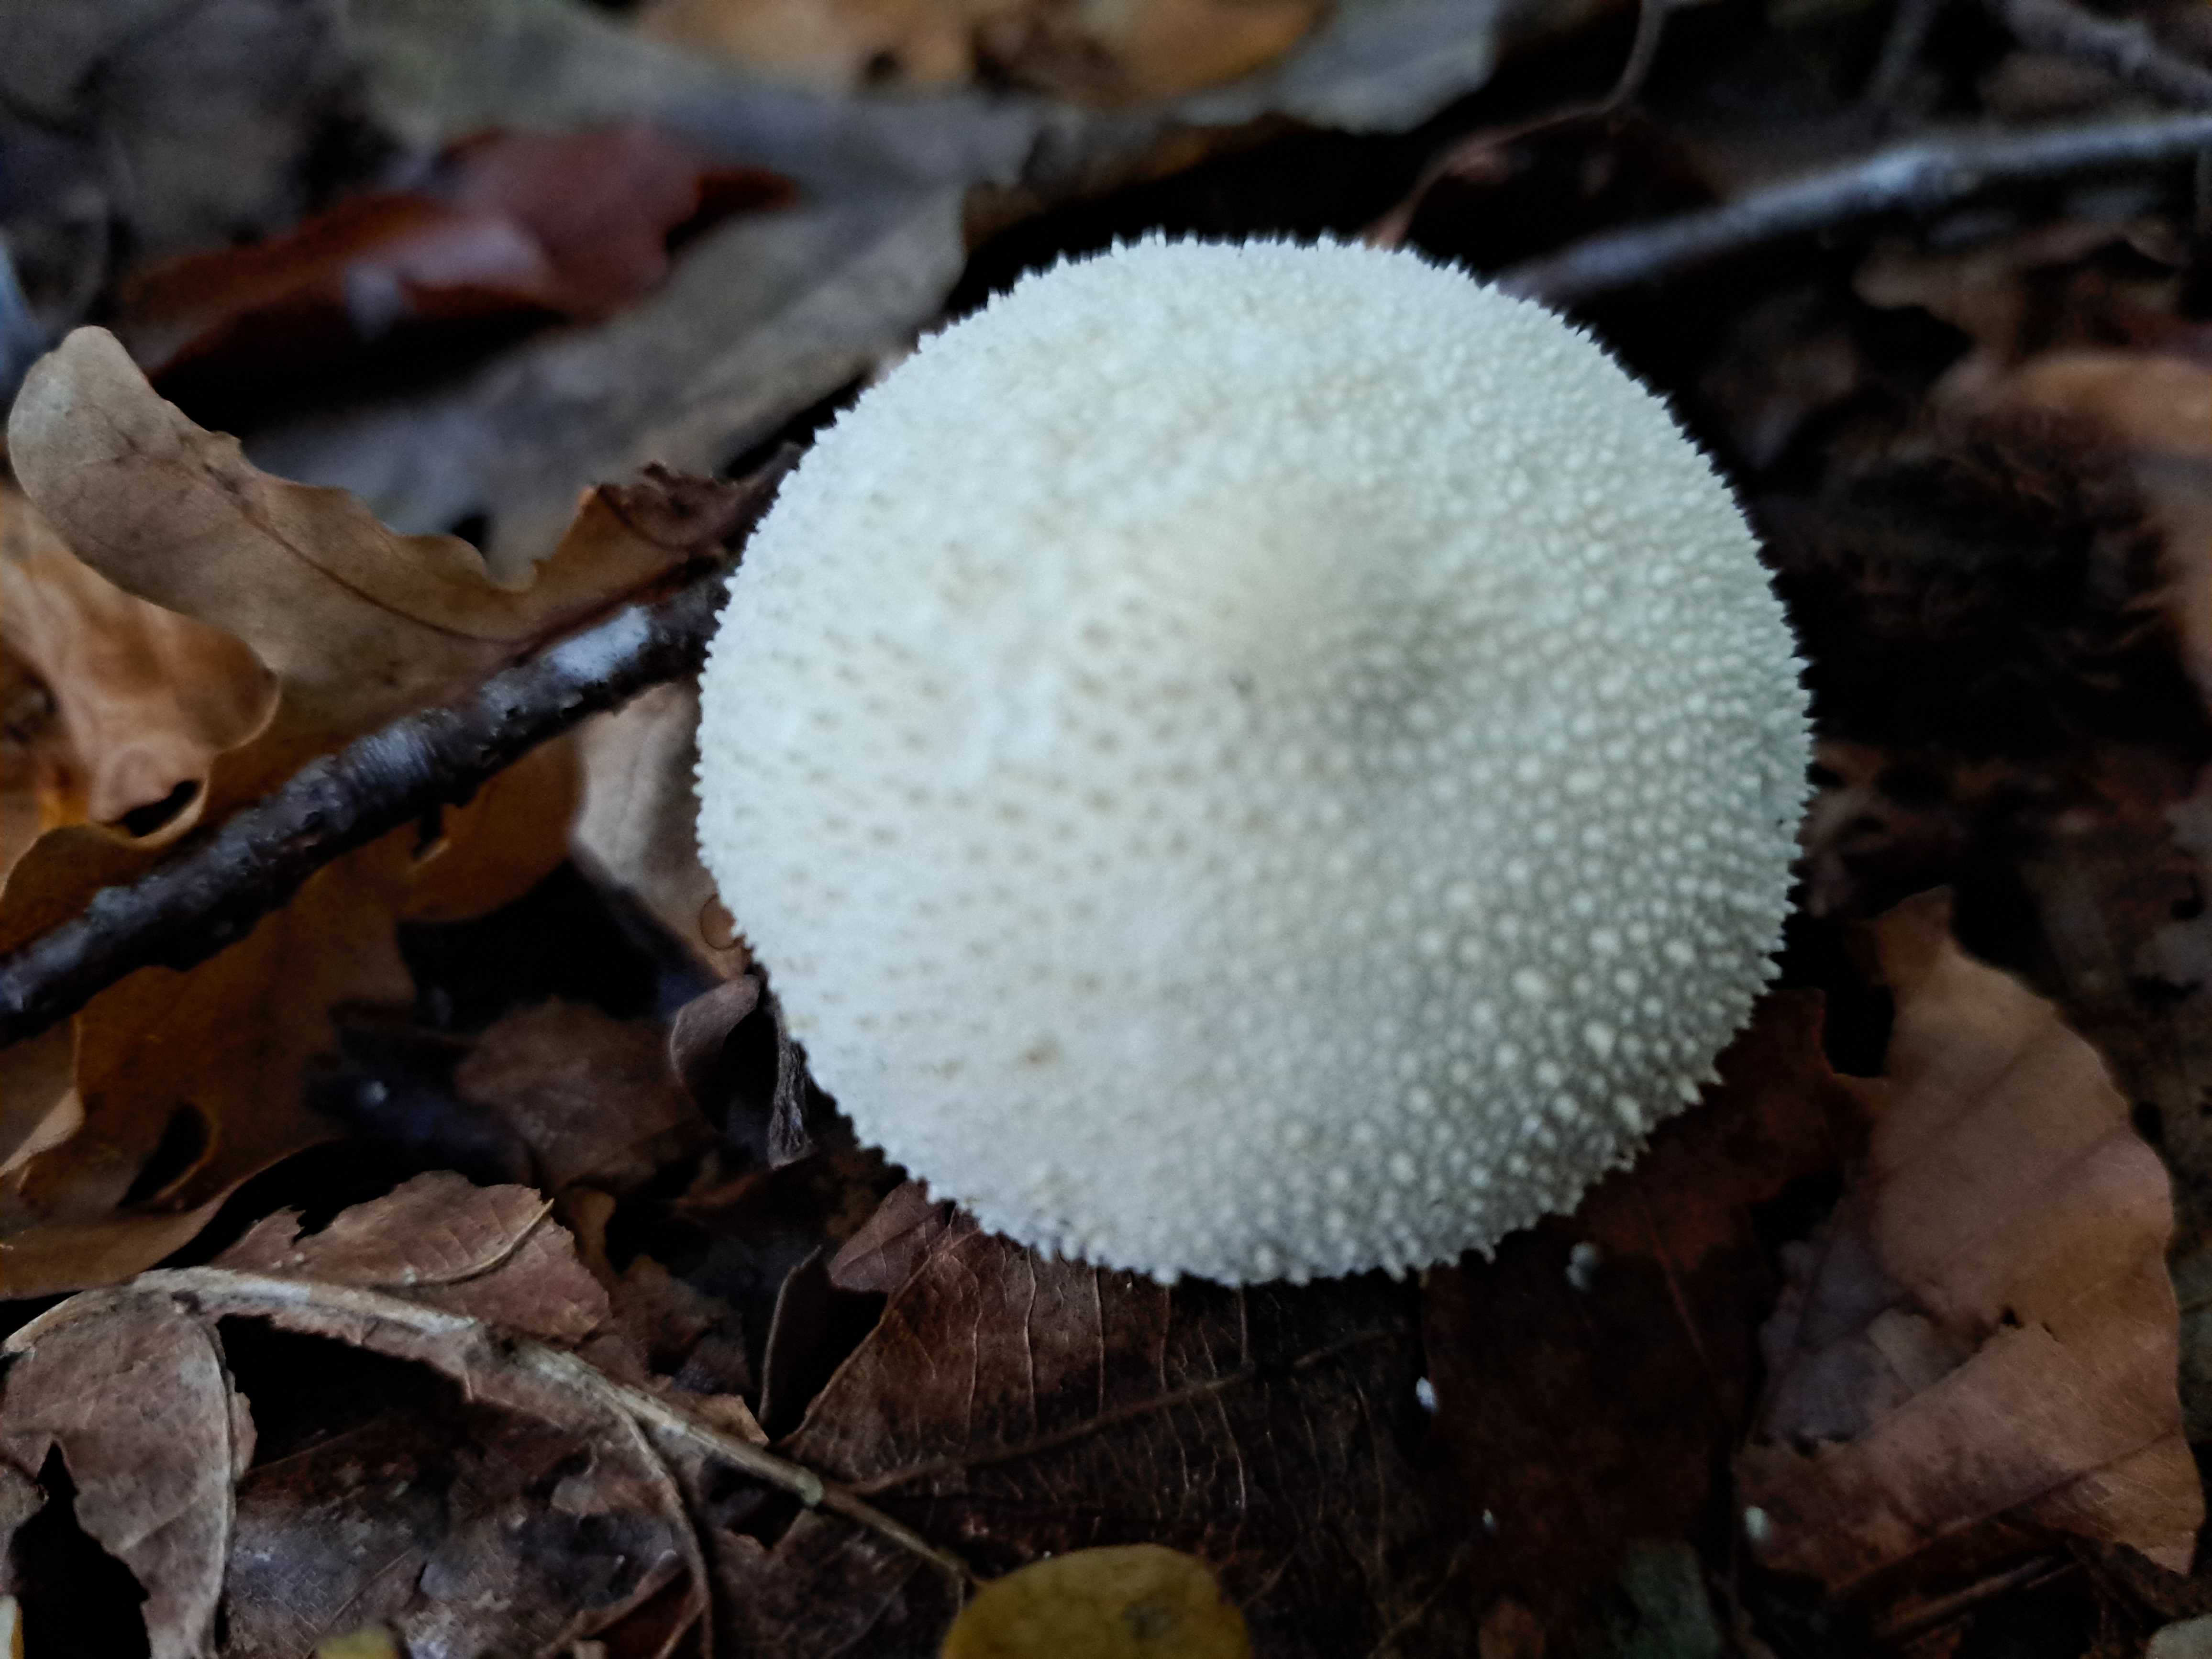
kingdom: Fungi
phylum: Basidiomycota
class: Agaricomycetes
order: Agaricales
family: Lycoperdaceae
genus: Lycoperdon
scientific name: Lycoperdon perlatum
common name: krystal-støvbold
